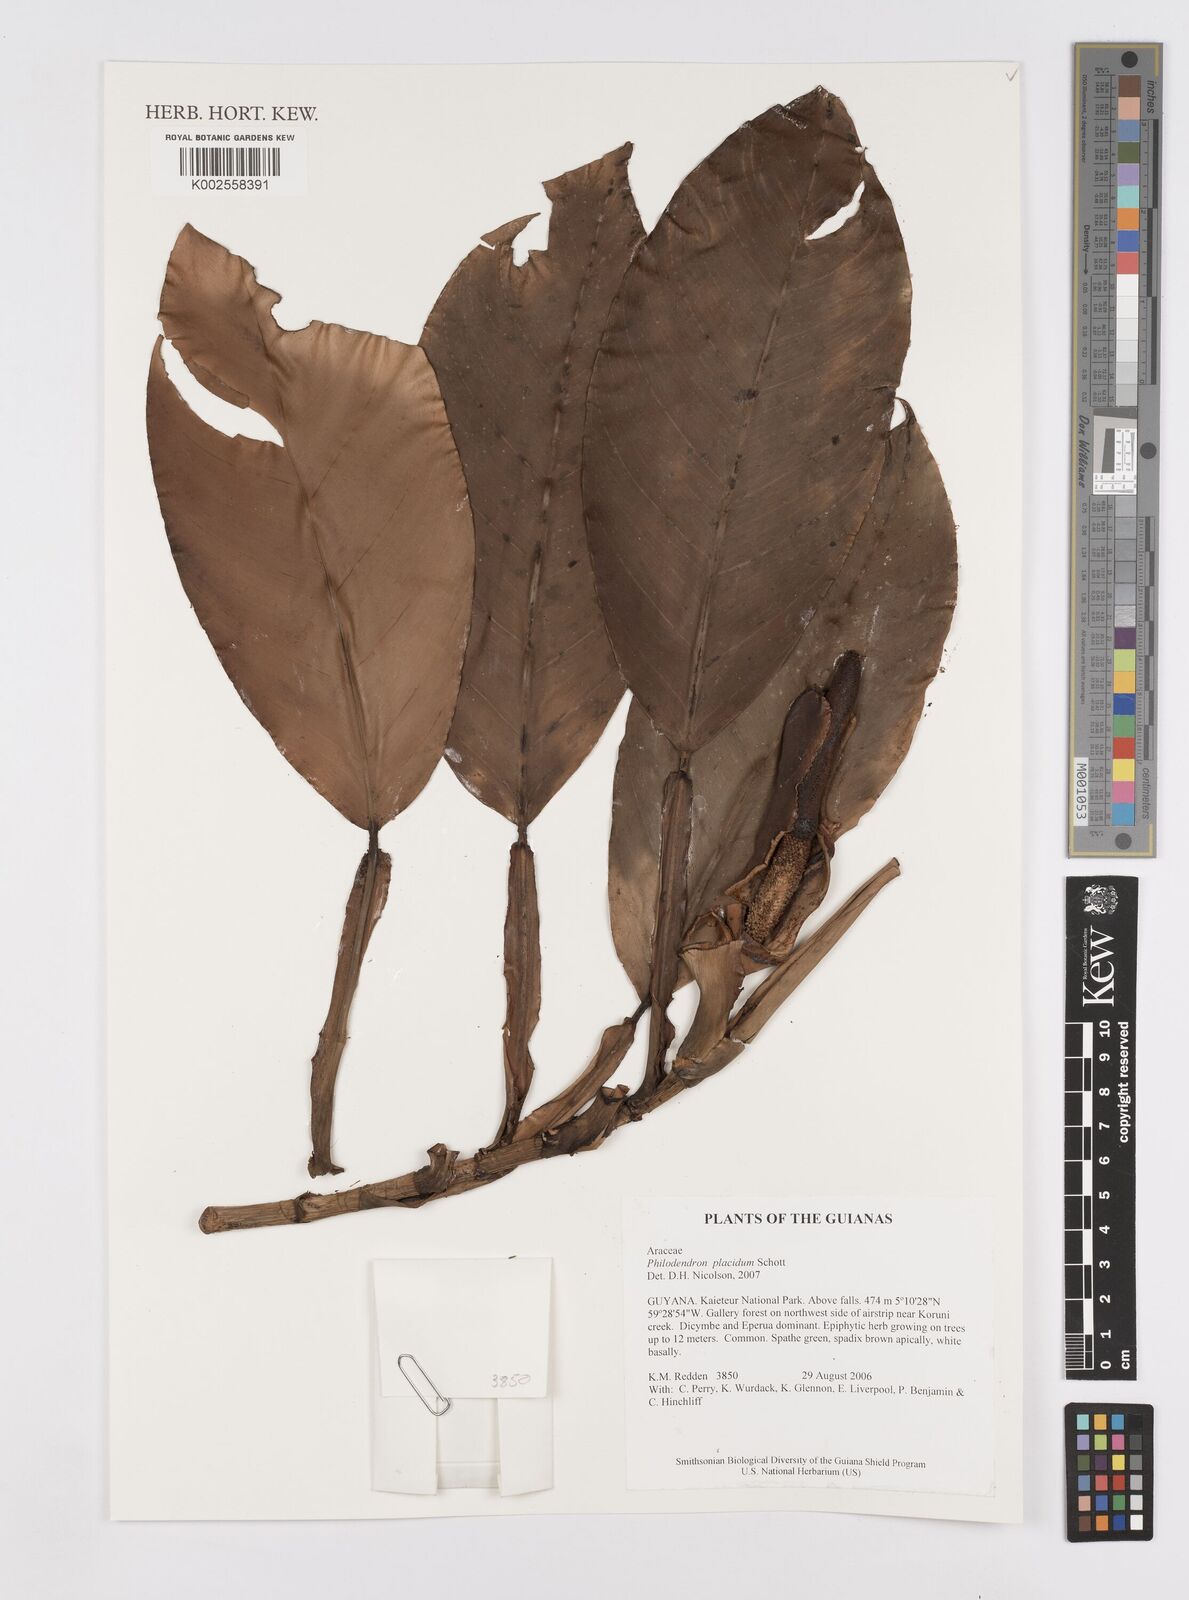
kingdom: Plantae
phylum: Tracheophyta
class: Liliopsida
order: Alismatales
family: Araceae
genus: Philodendron
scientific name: Philodendron placidum
